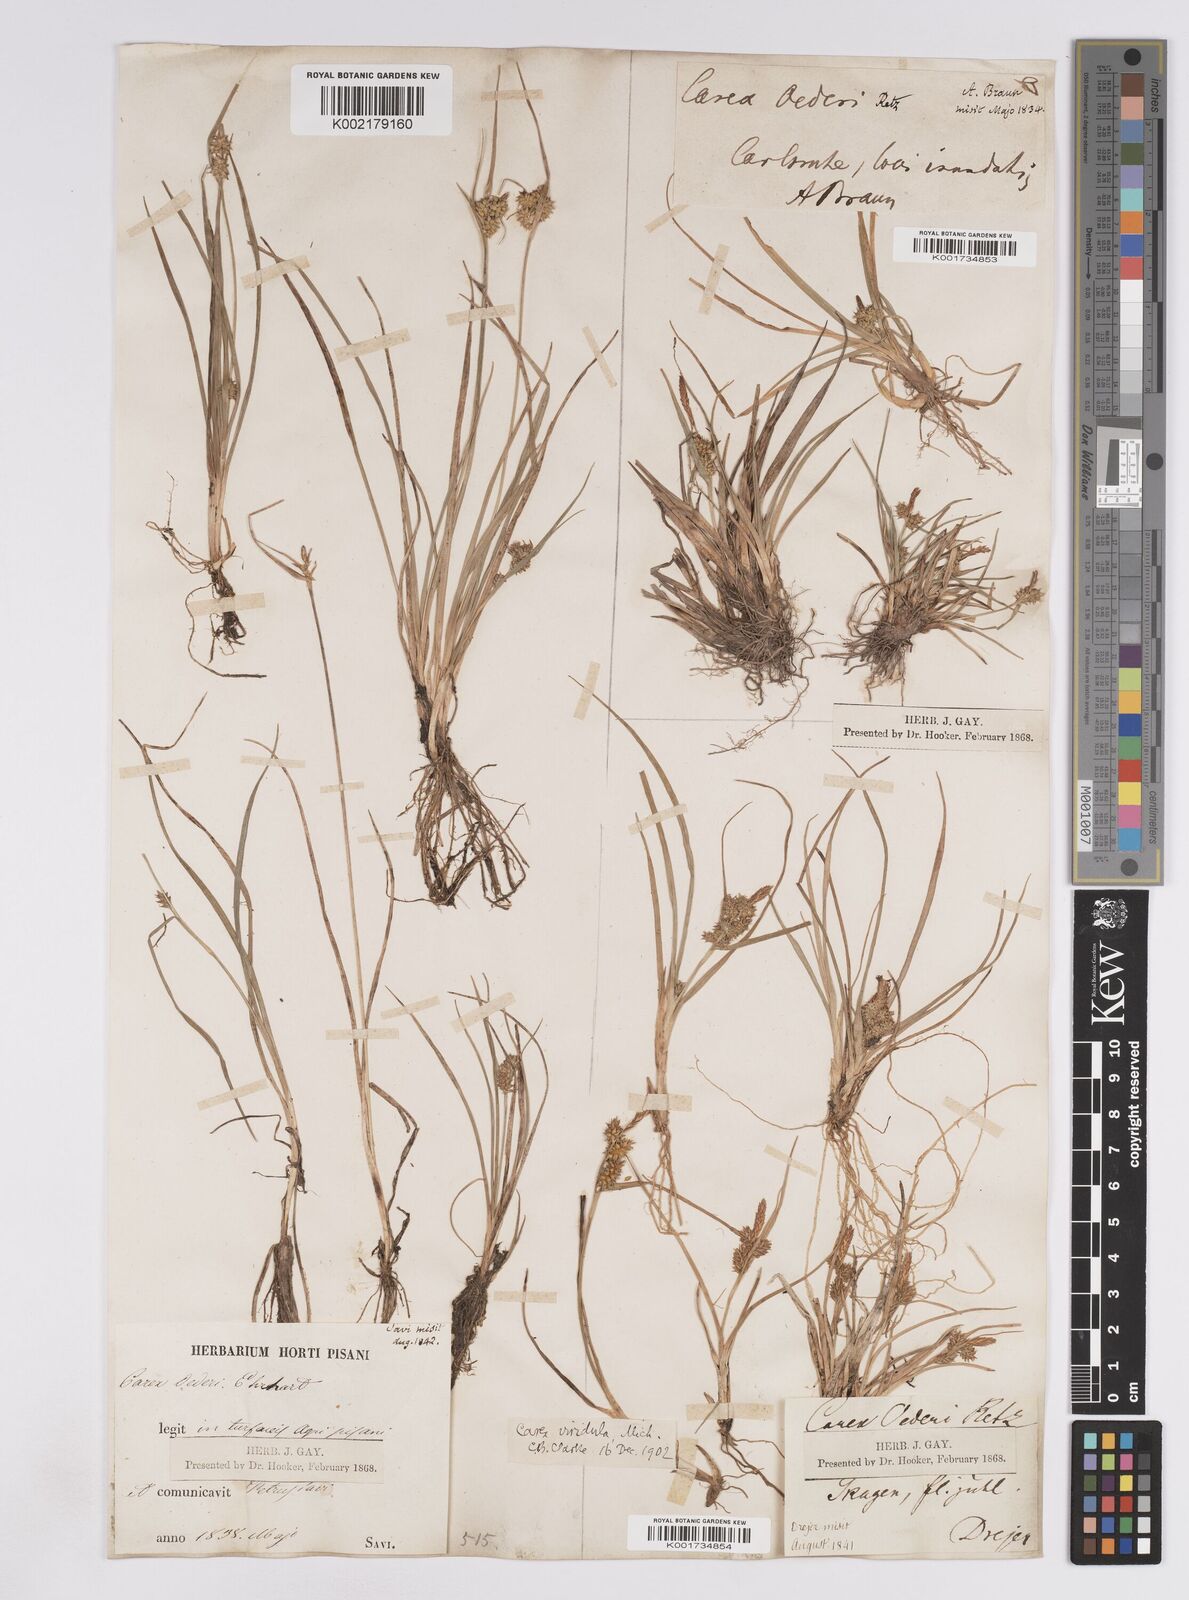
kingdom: Plantae
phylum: Tracheophyta
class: Liliopsida
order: Poales
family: Cyperaceae
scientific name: Cyperaceae
